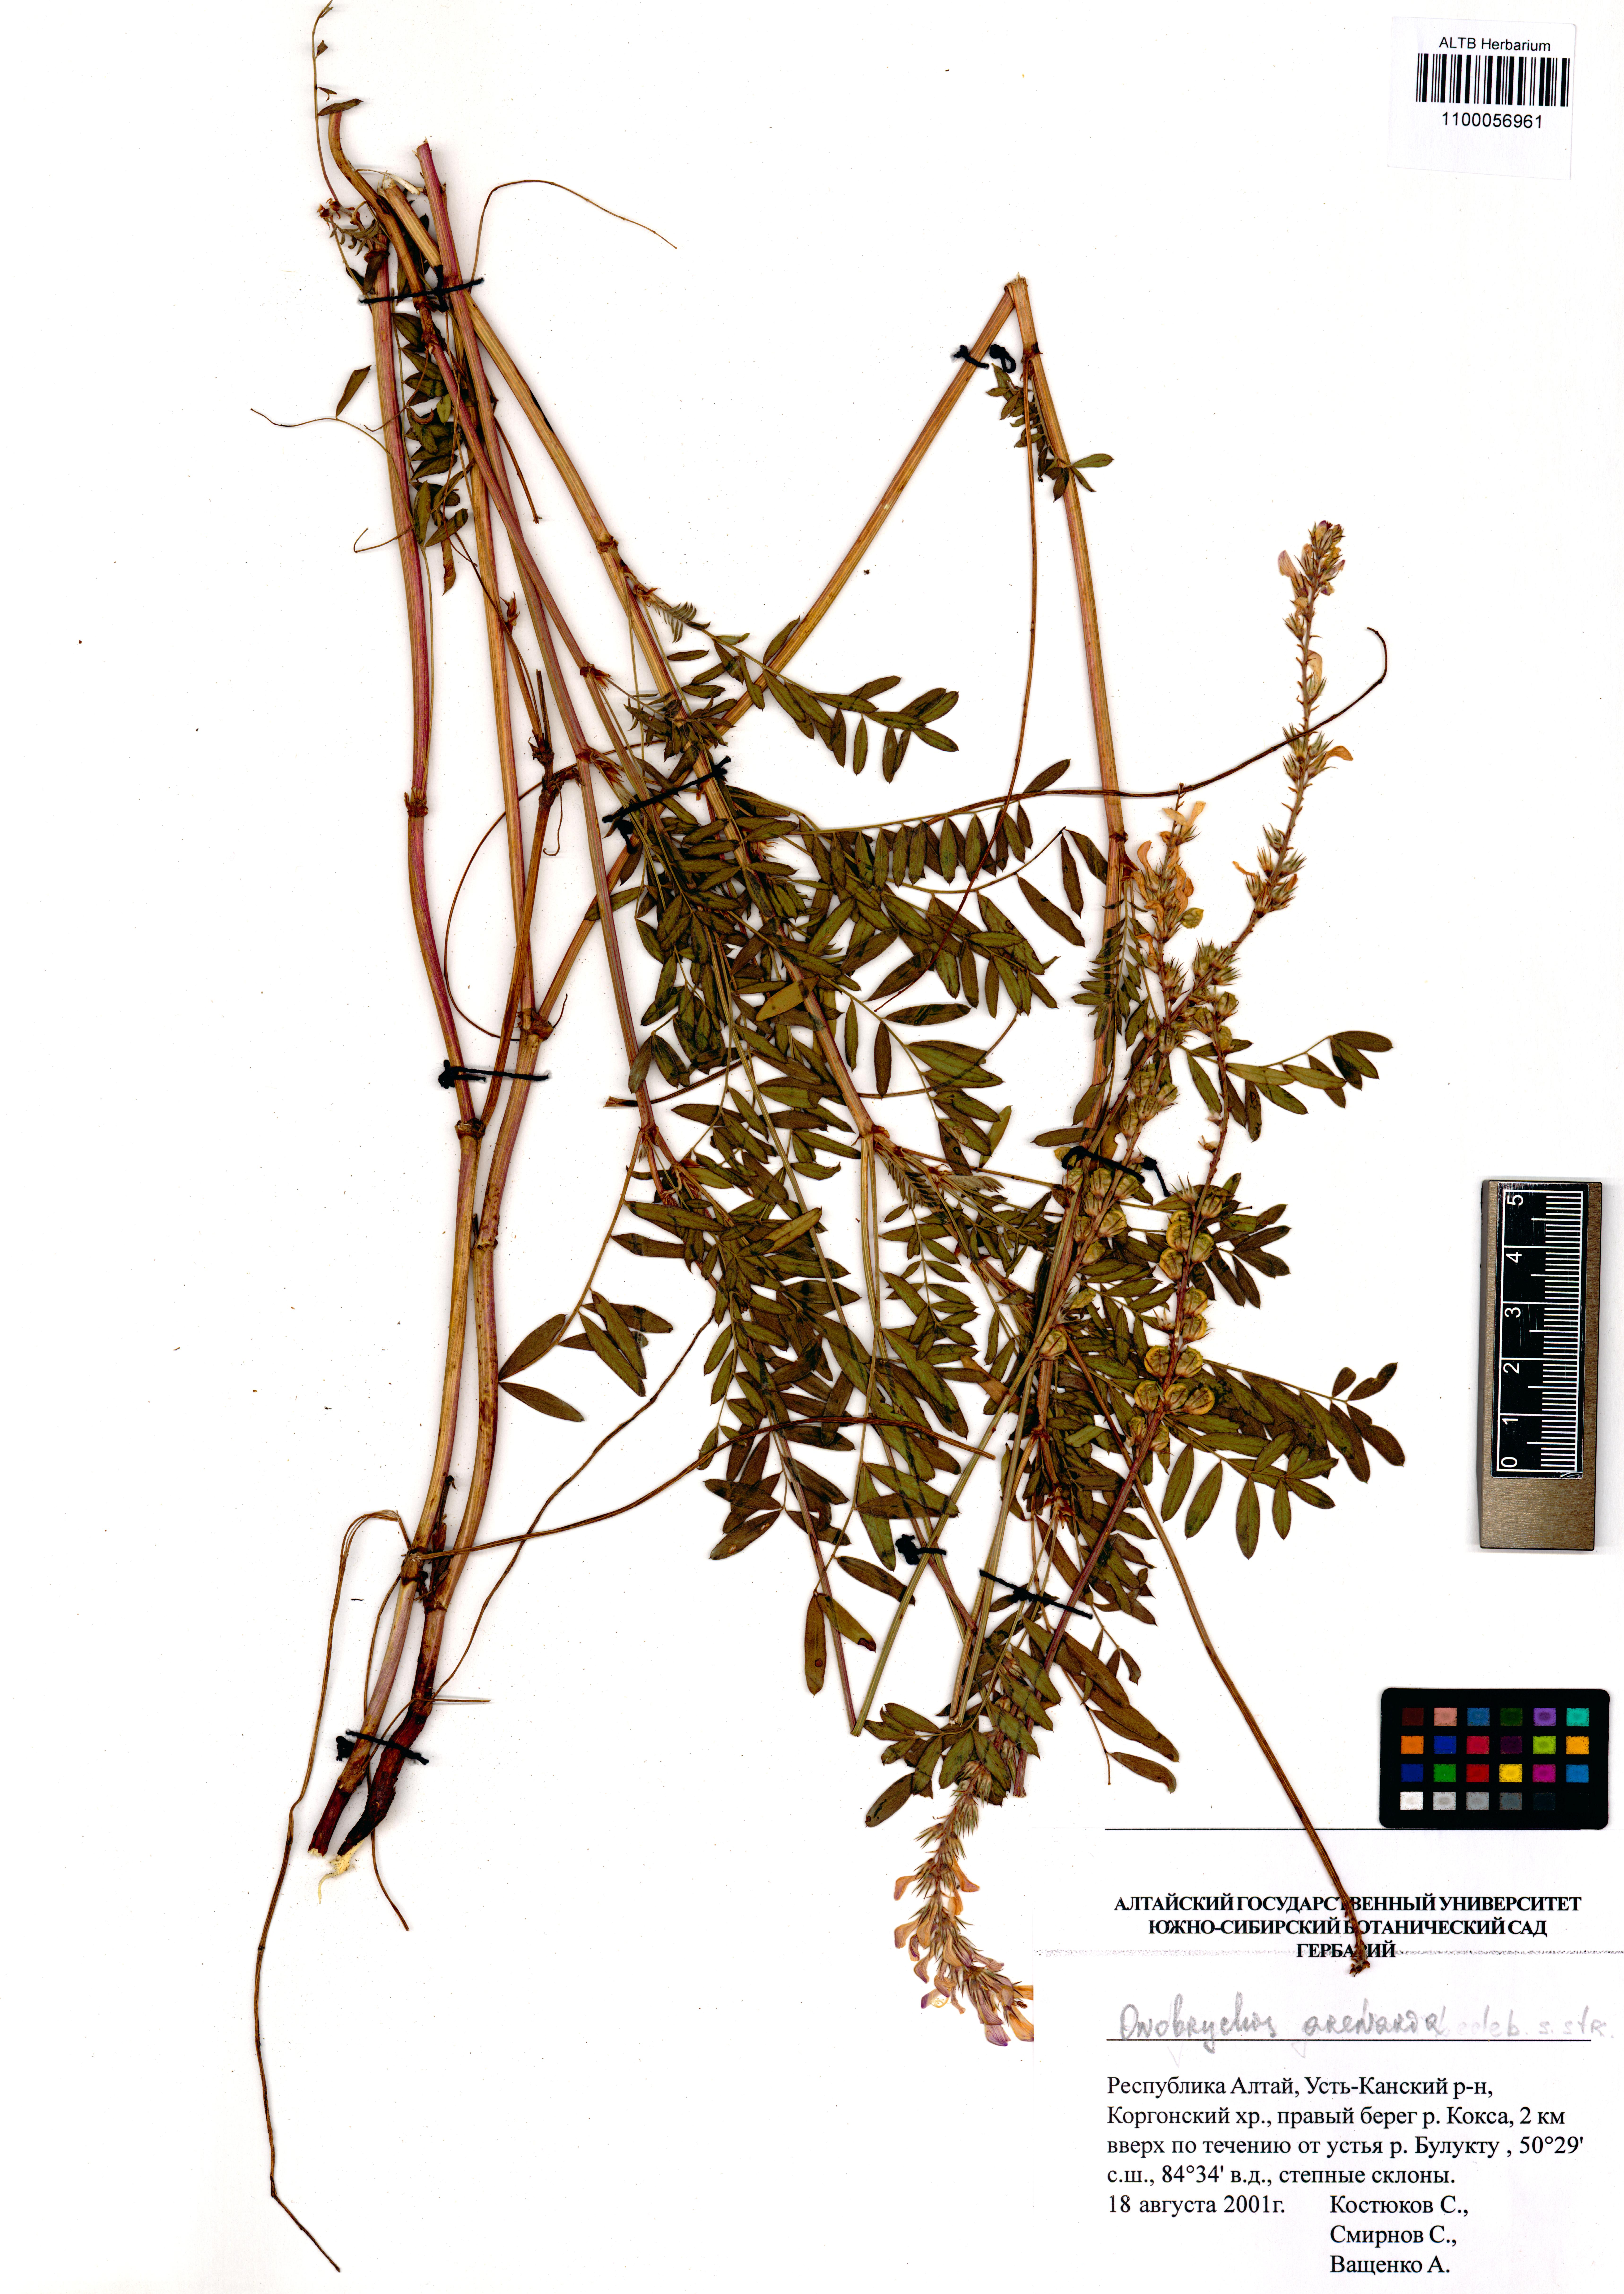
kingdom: Plantae
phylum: Tracheophyta
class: Magnoliopsida
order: Fabales
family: Fabaceae
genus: Onobrychis
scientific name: Onobrychis arenaria
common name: Sand esparcet
